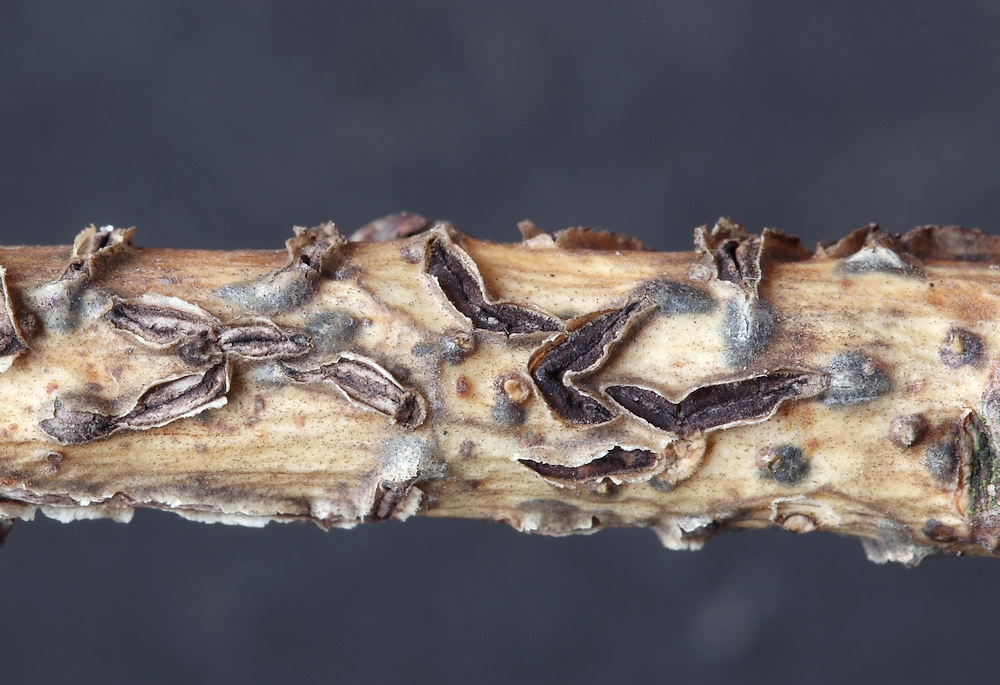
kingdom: Fungi
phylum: Ascomycota
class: Leotiomycetes
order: Rhytismatales
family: Rhytismataceae
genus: Colpoma
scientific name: Colpoma quercinum
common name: ege-sprækkeskive
